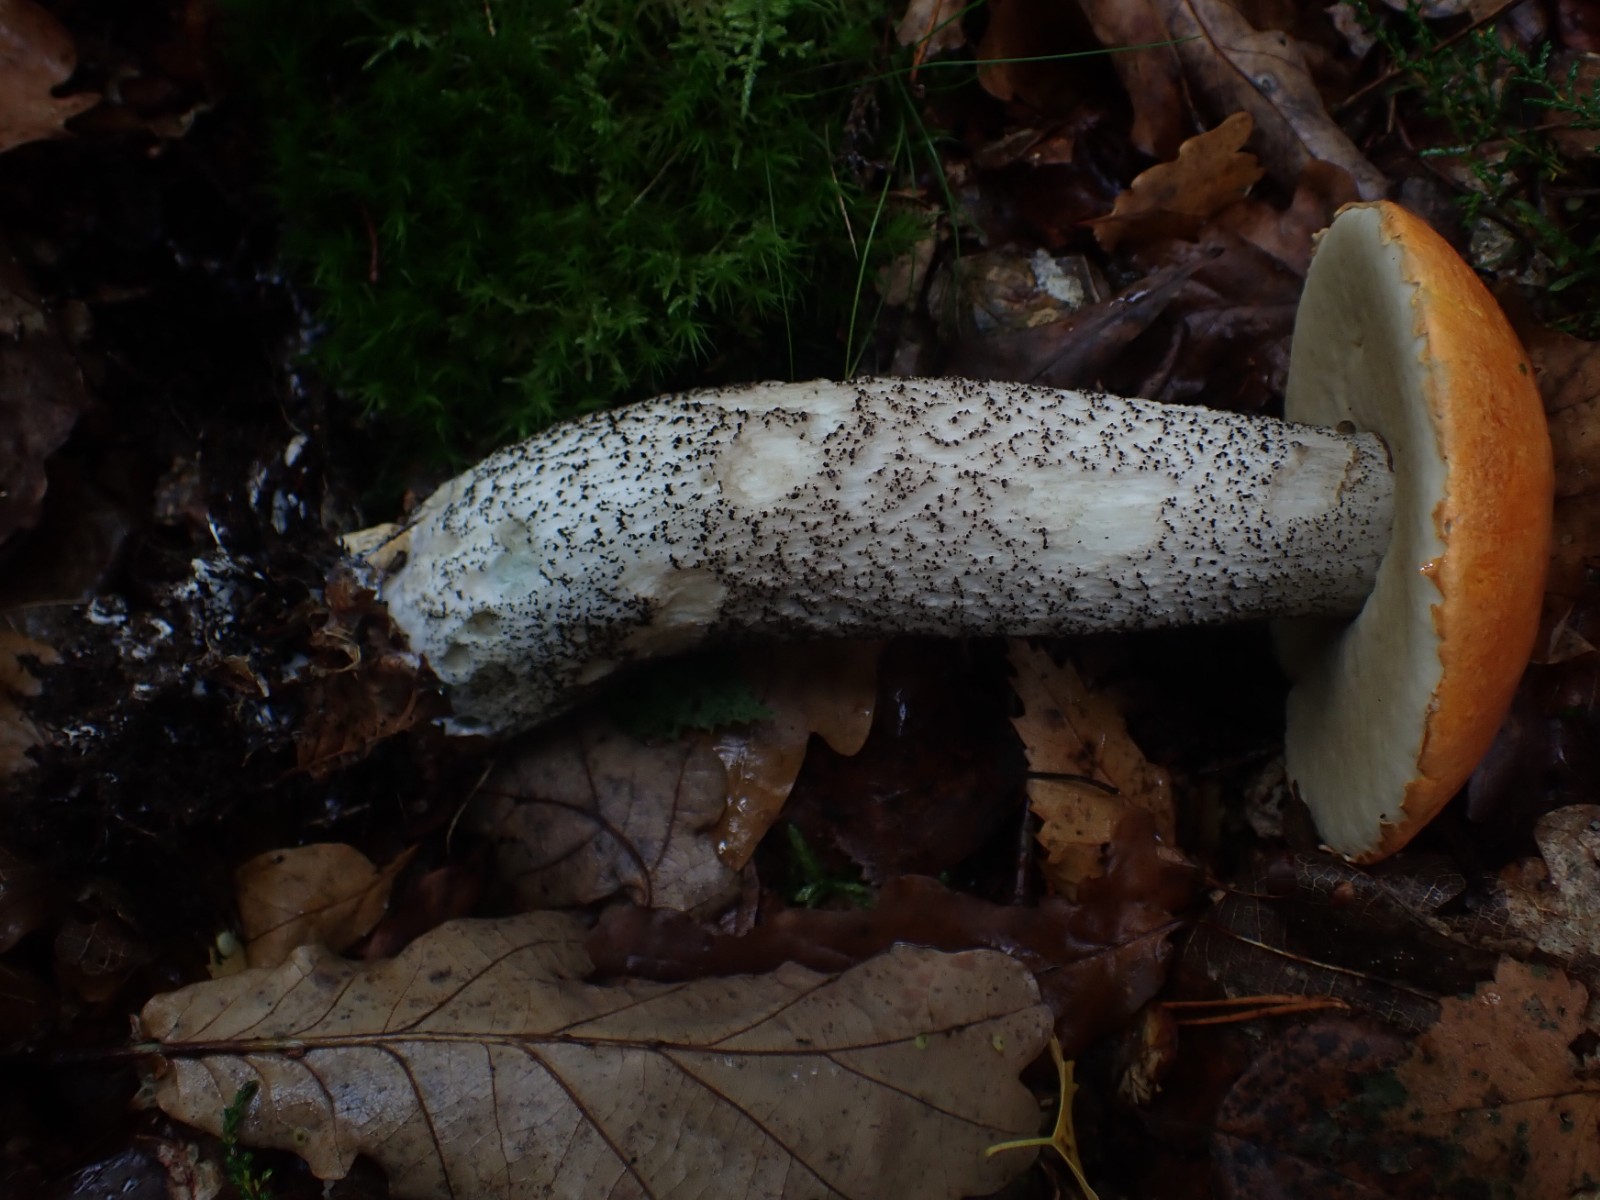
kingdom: Fungi
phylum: Basidiomycota
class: Agaricomycetes
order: Boletales
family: Boletaceae
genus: Leccinum
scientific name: Leccinum versipelle
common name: orange skælrørhat
